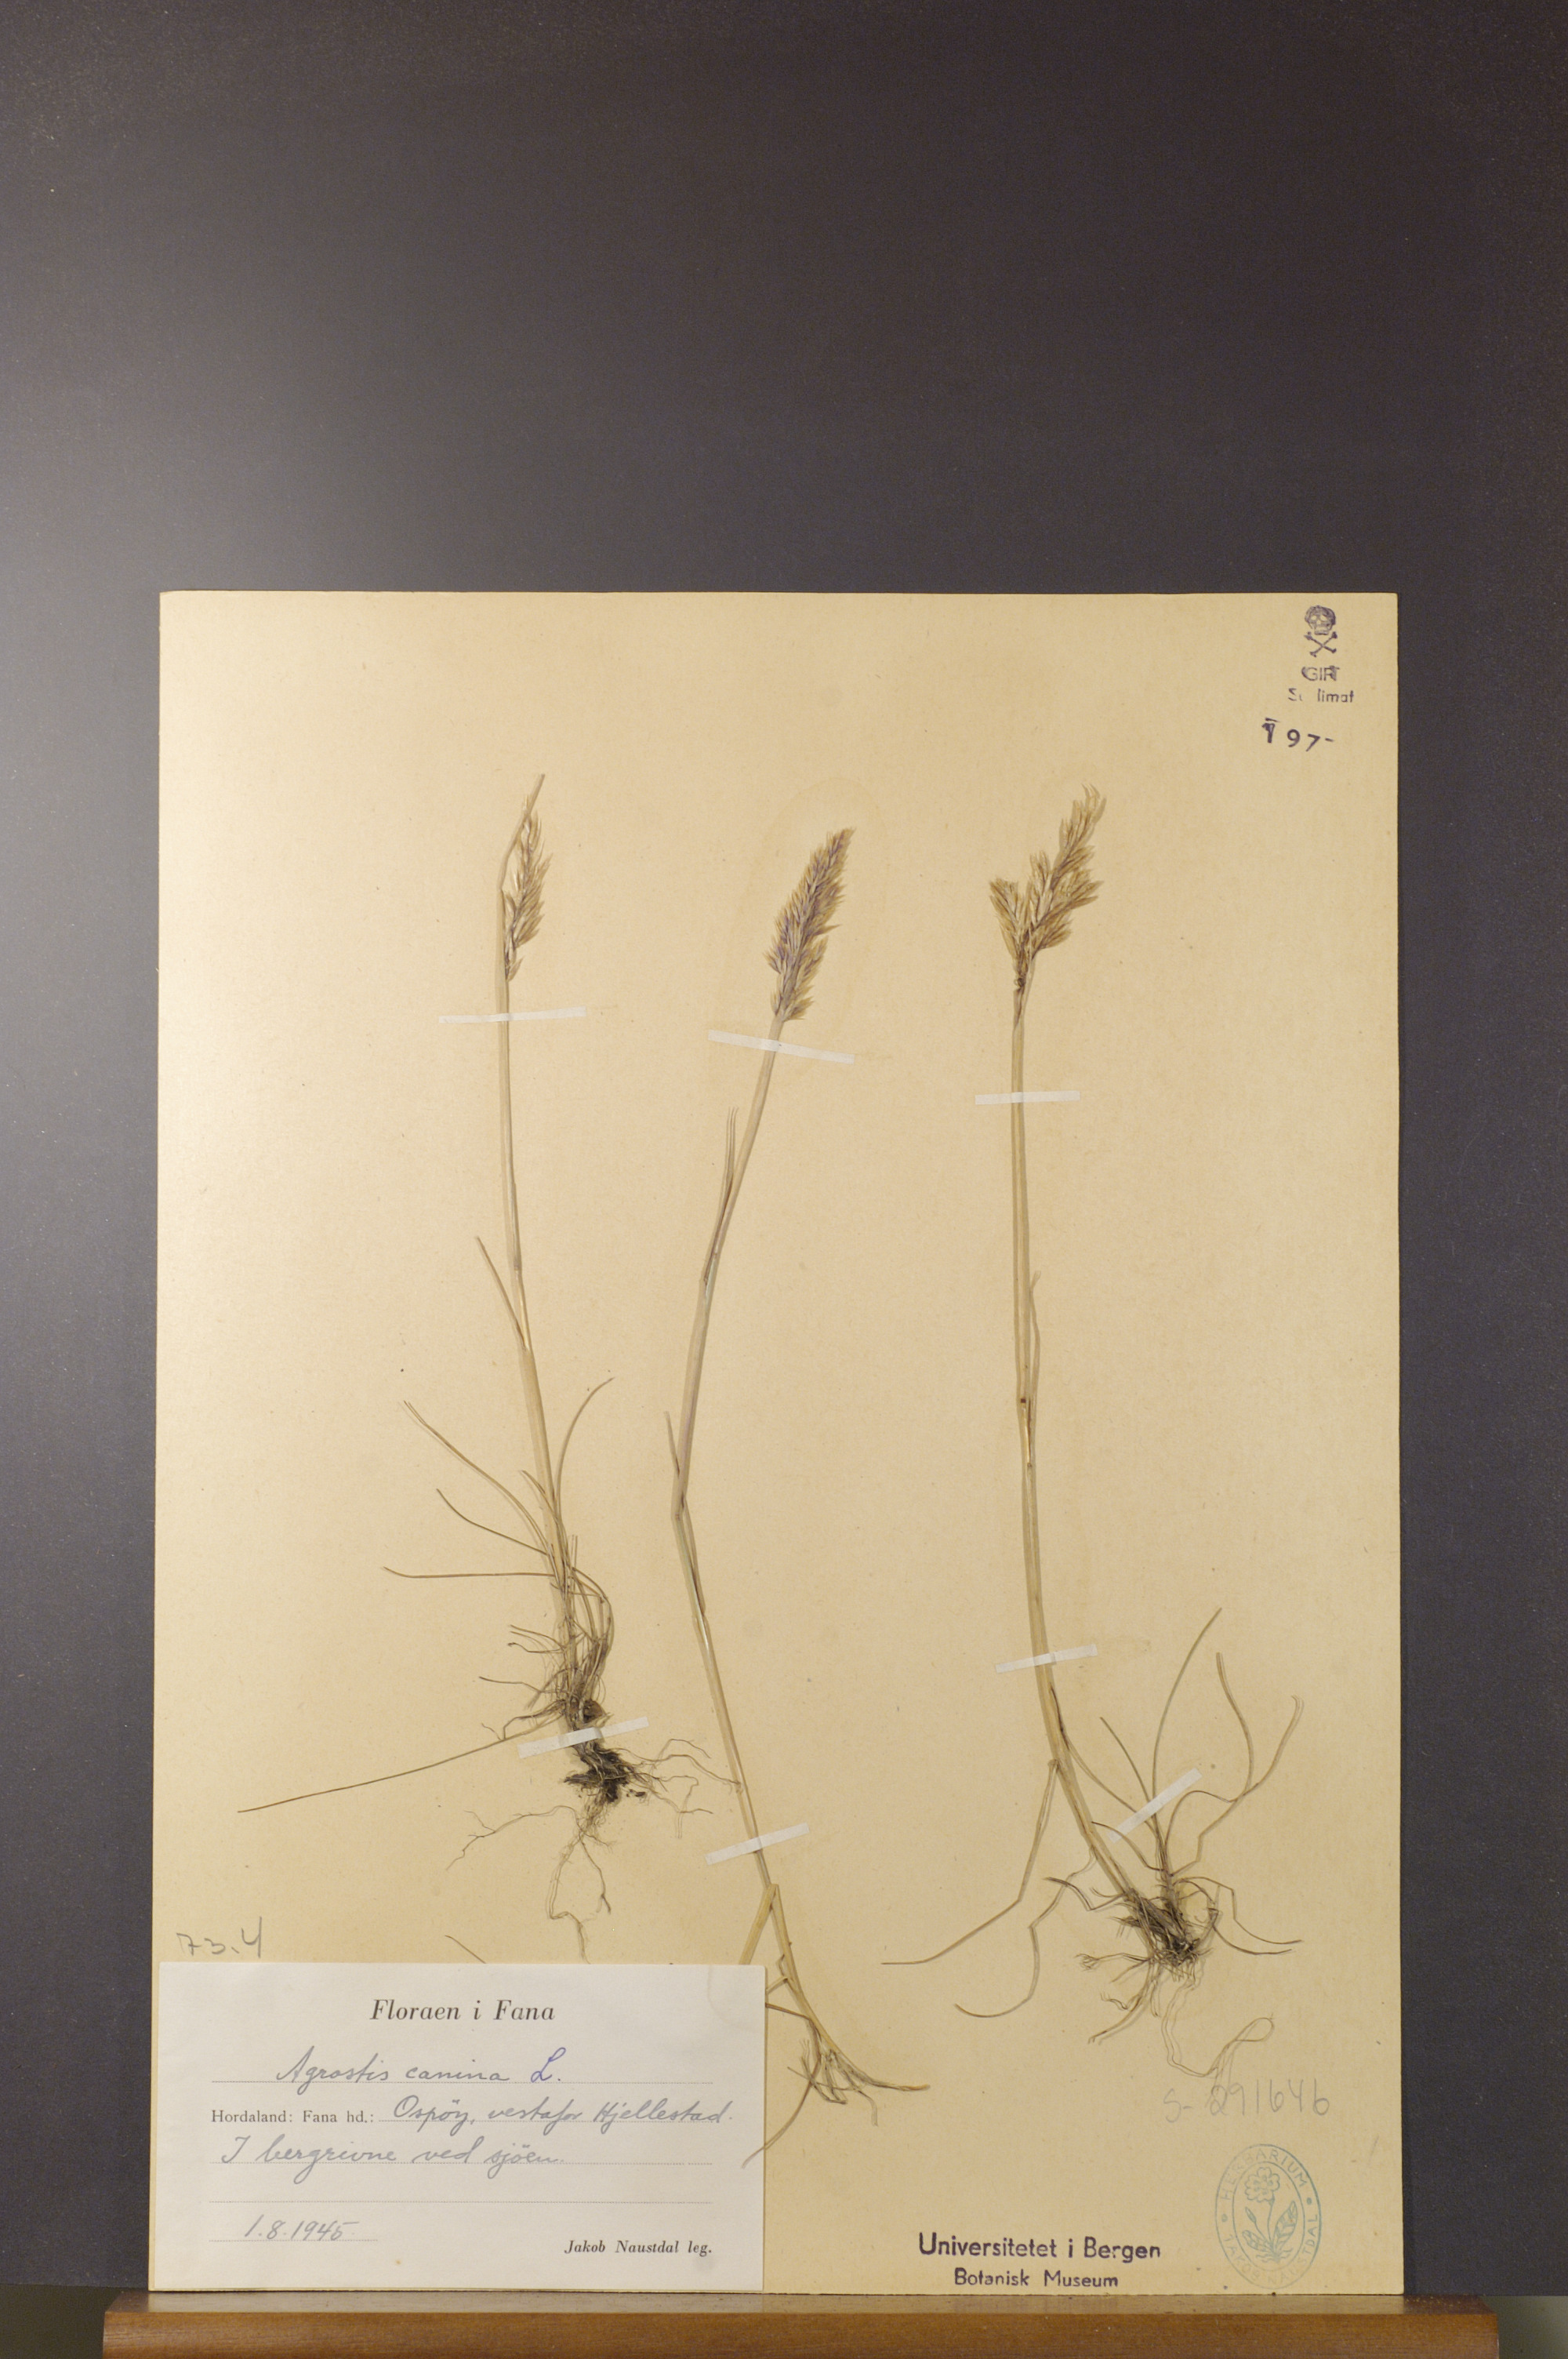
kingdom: Plantae
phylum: Tracheophyta
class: Liliopsida
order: Poales
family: Poaceae
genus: Agrostis
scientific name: Agrostis canina
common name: Velvet bent
